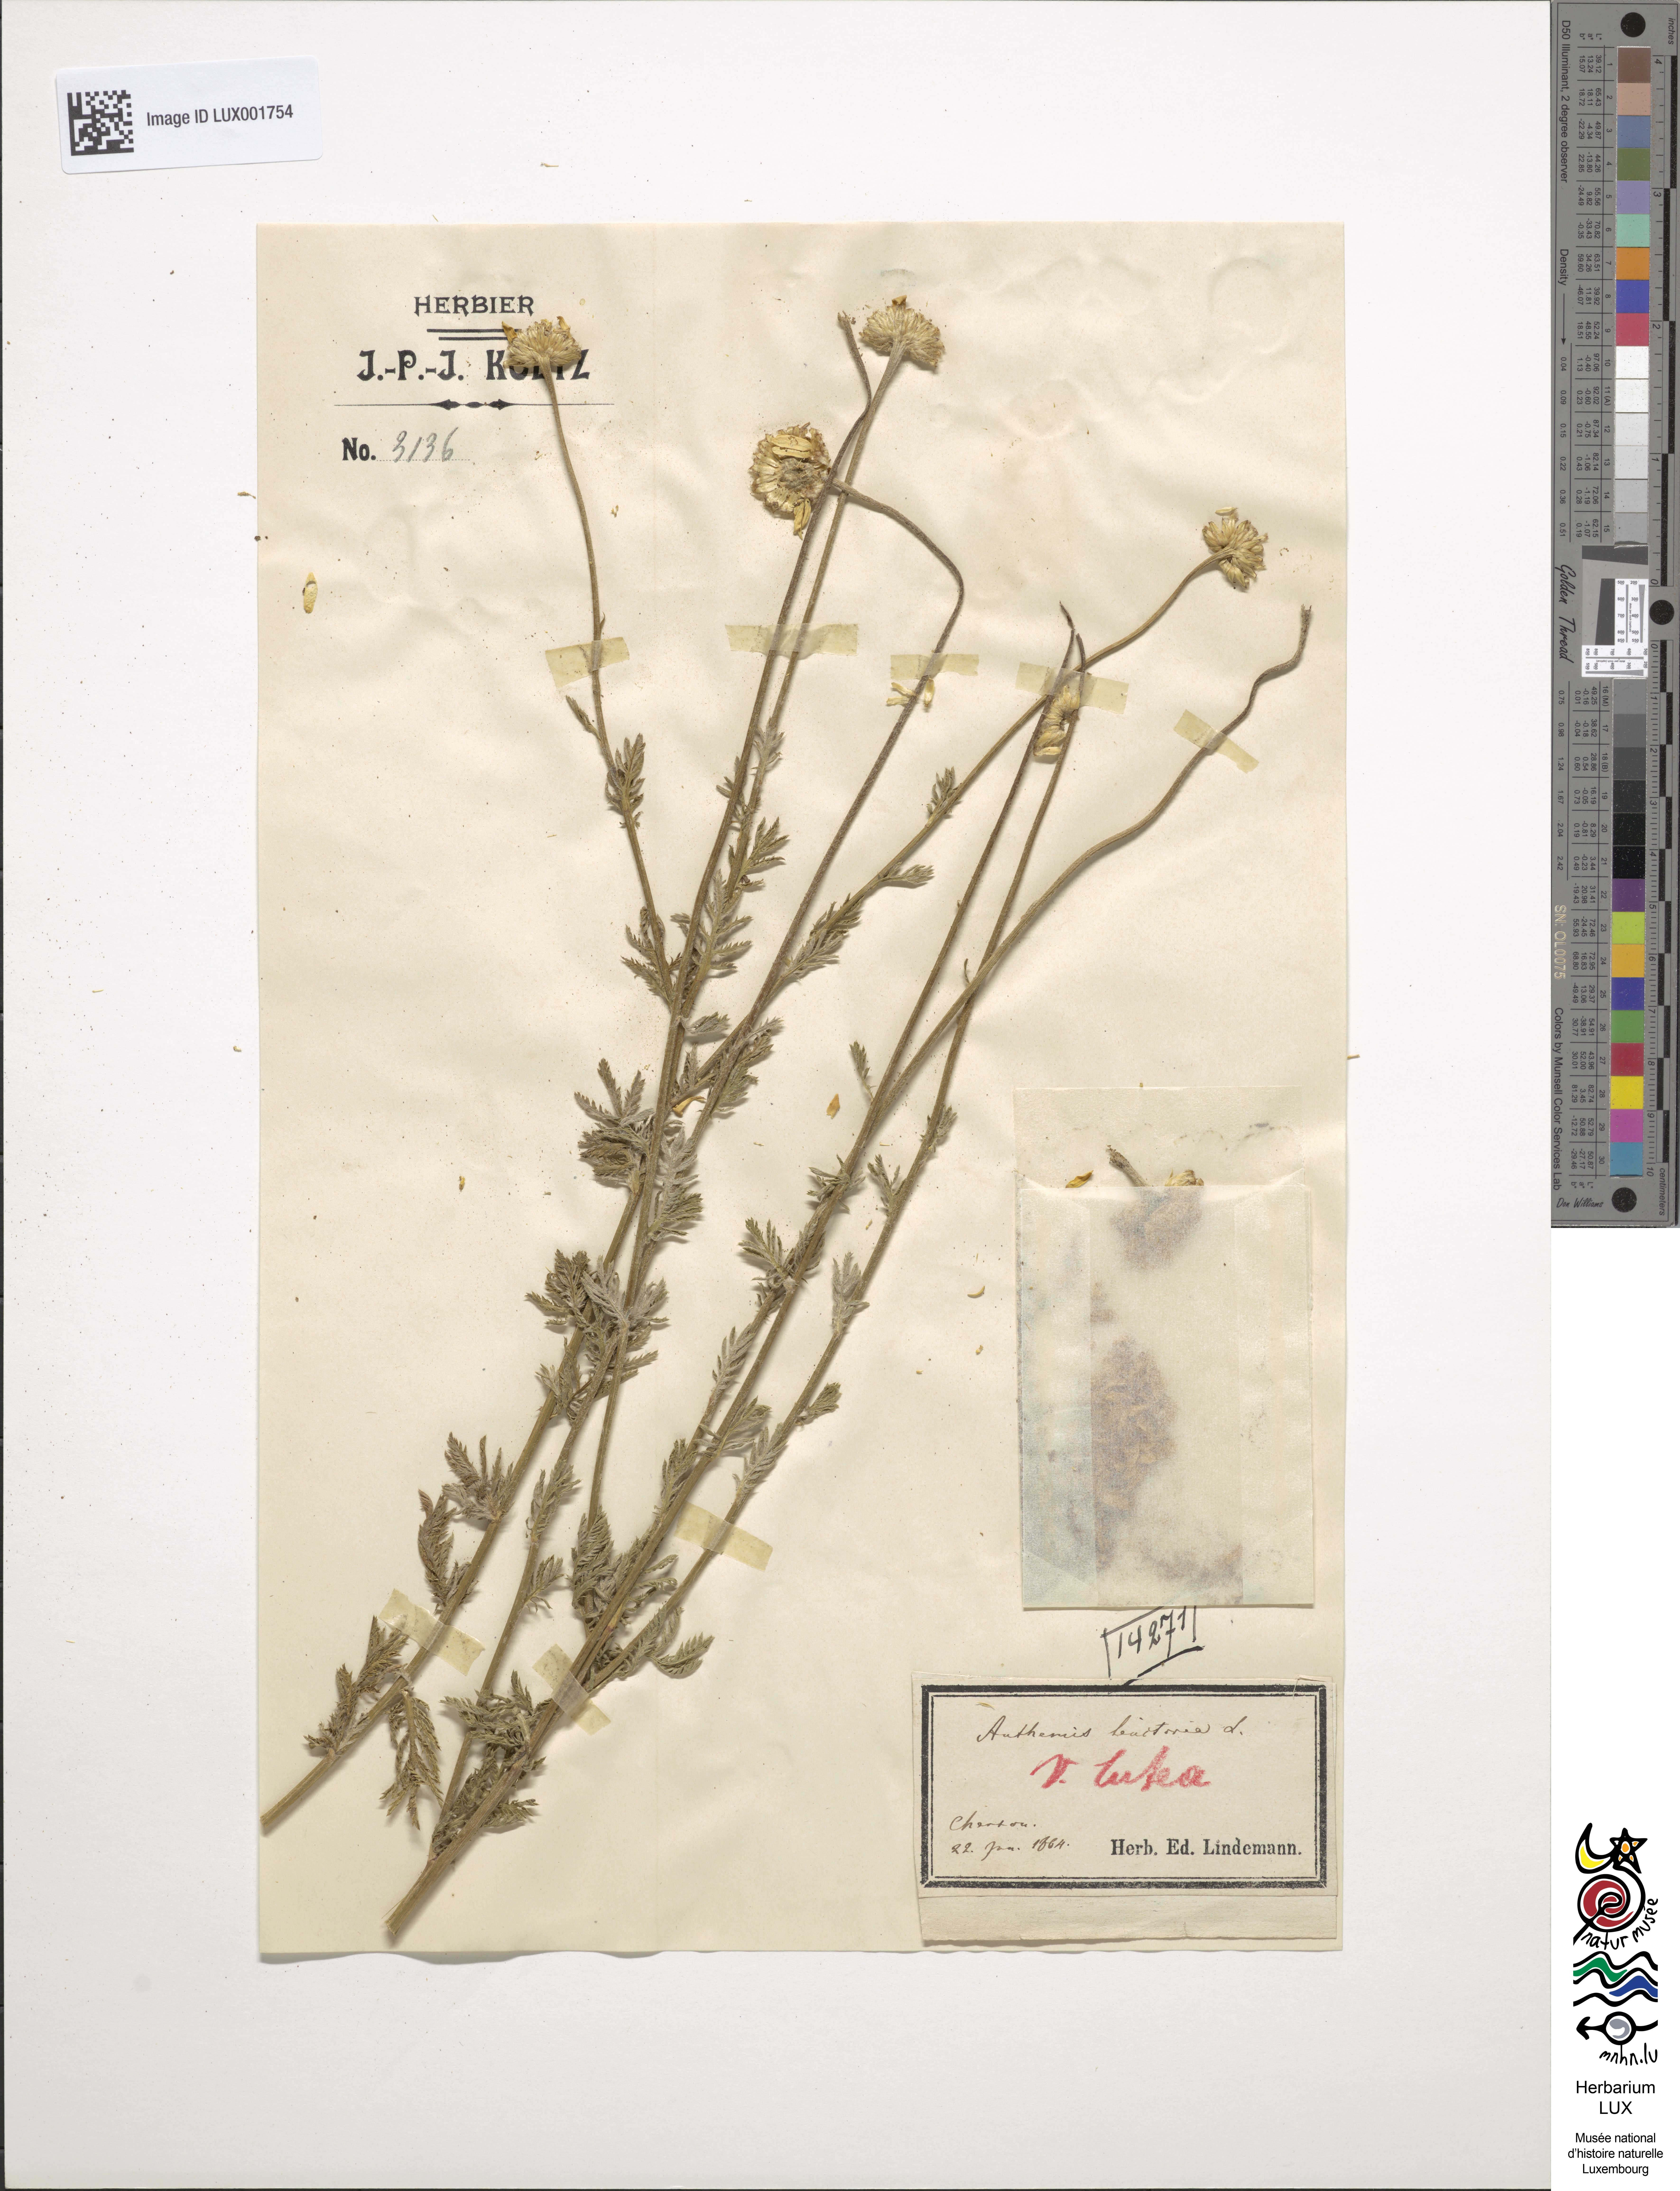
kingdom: Plantae
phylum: Tracheophyta
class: Magnoliopsida
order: Asterales
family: Asteraceae
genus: Cota
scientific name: Cota tinctoria
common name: Golden chamomile
